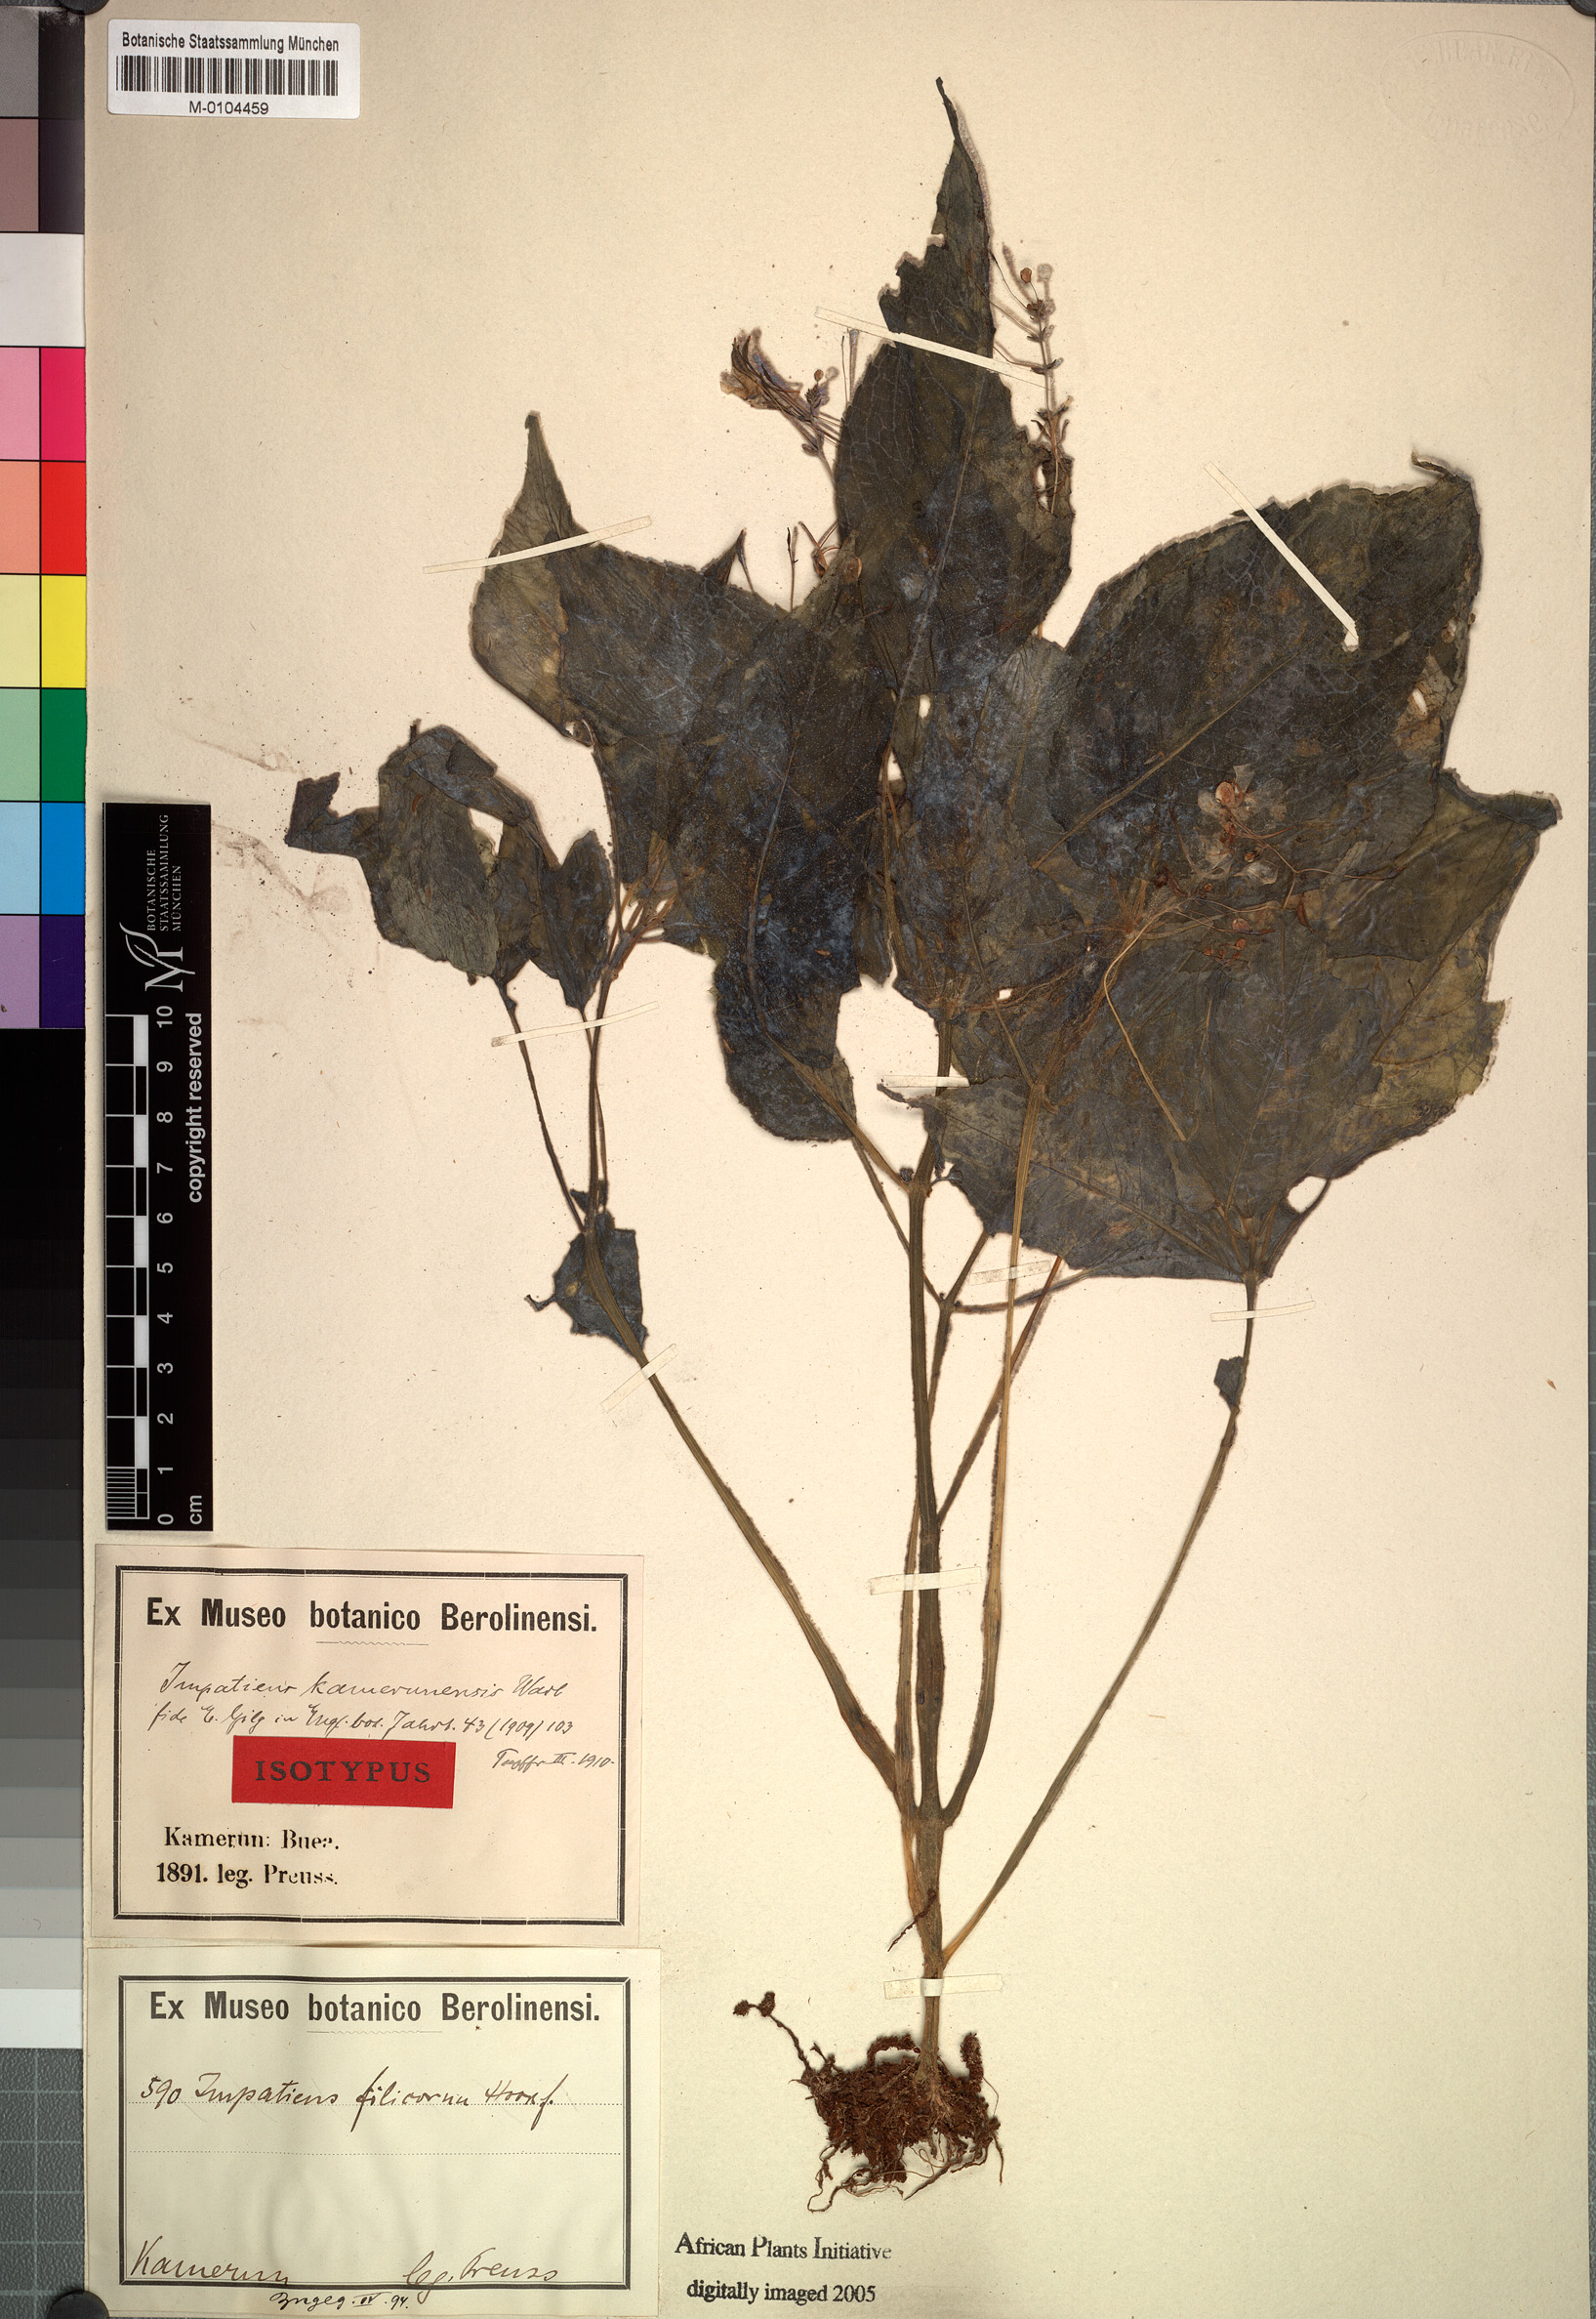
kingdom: Plantae
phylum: Tracheophyta
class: Magnoliopsida
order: Ericales
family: Balsaminaceae
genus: Impatiens
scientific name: Impatiens kamerunensis
